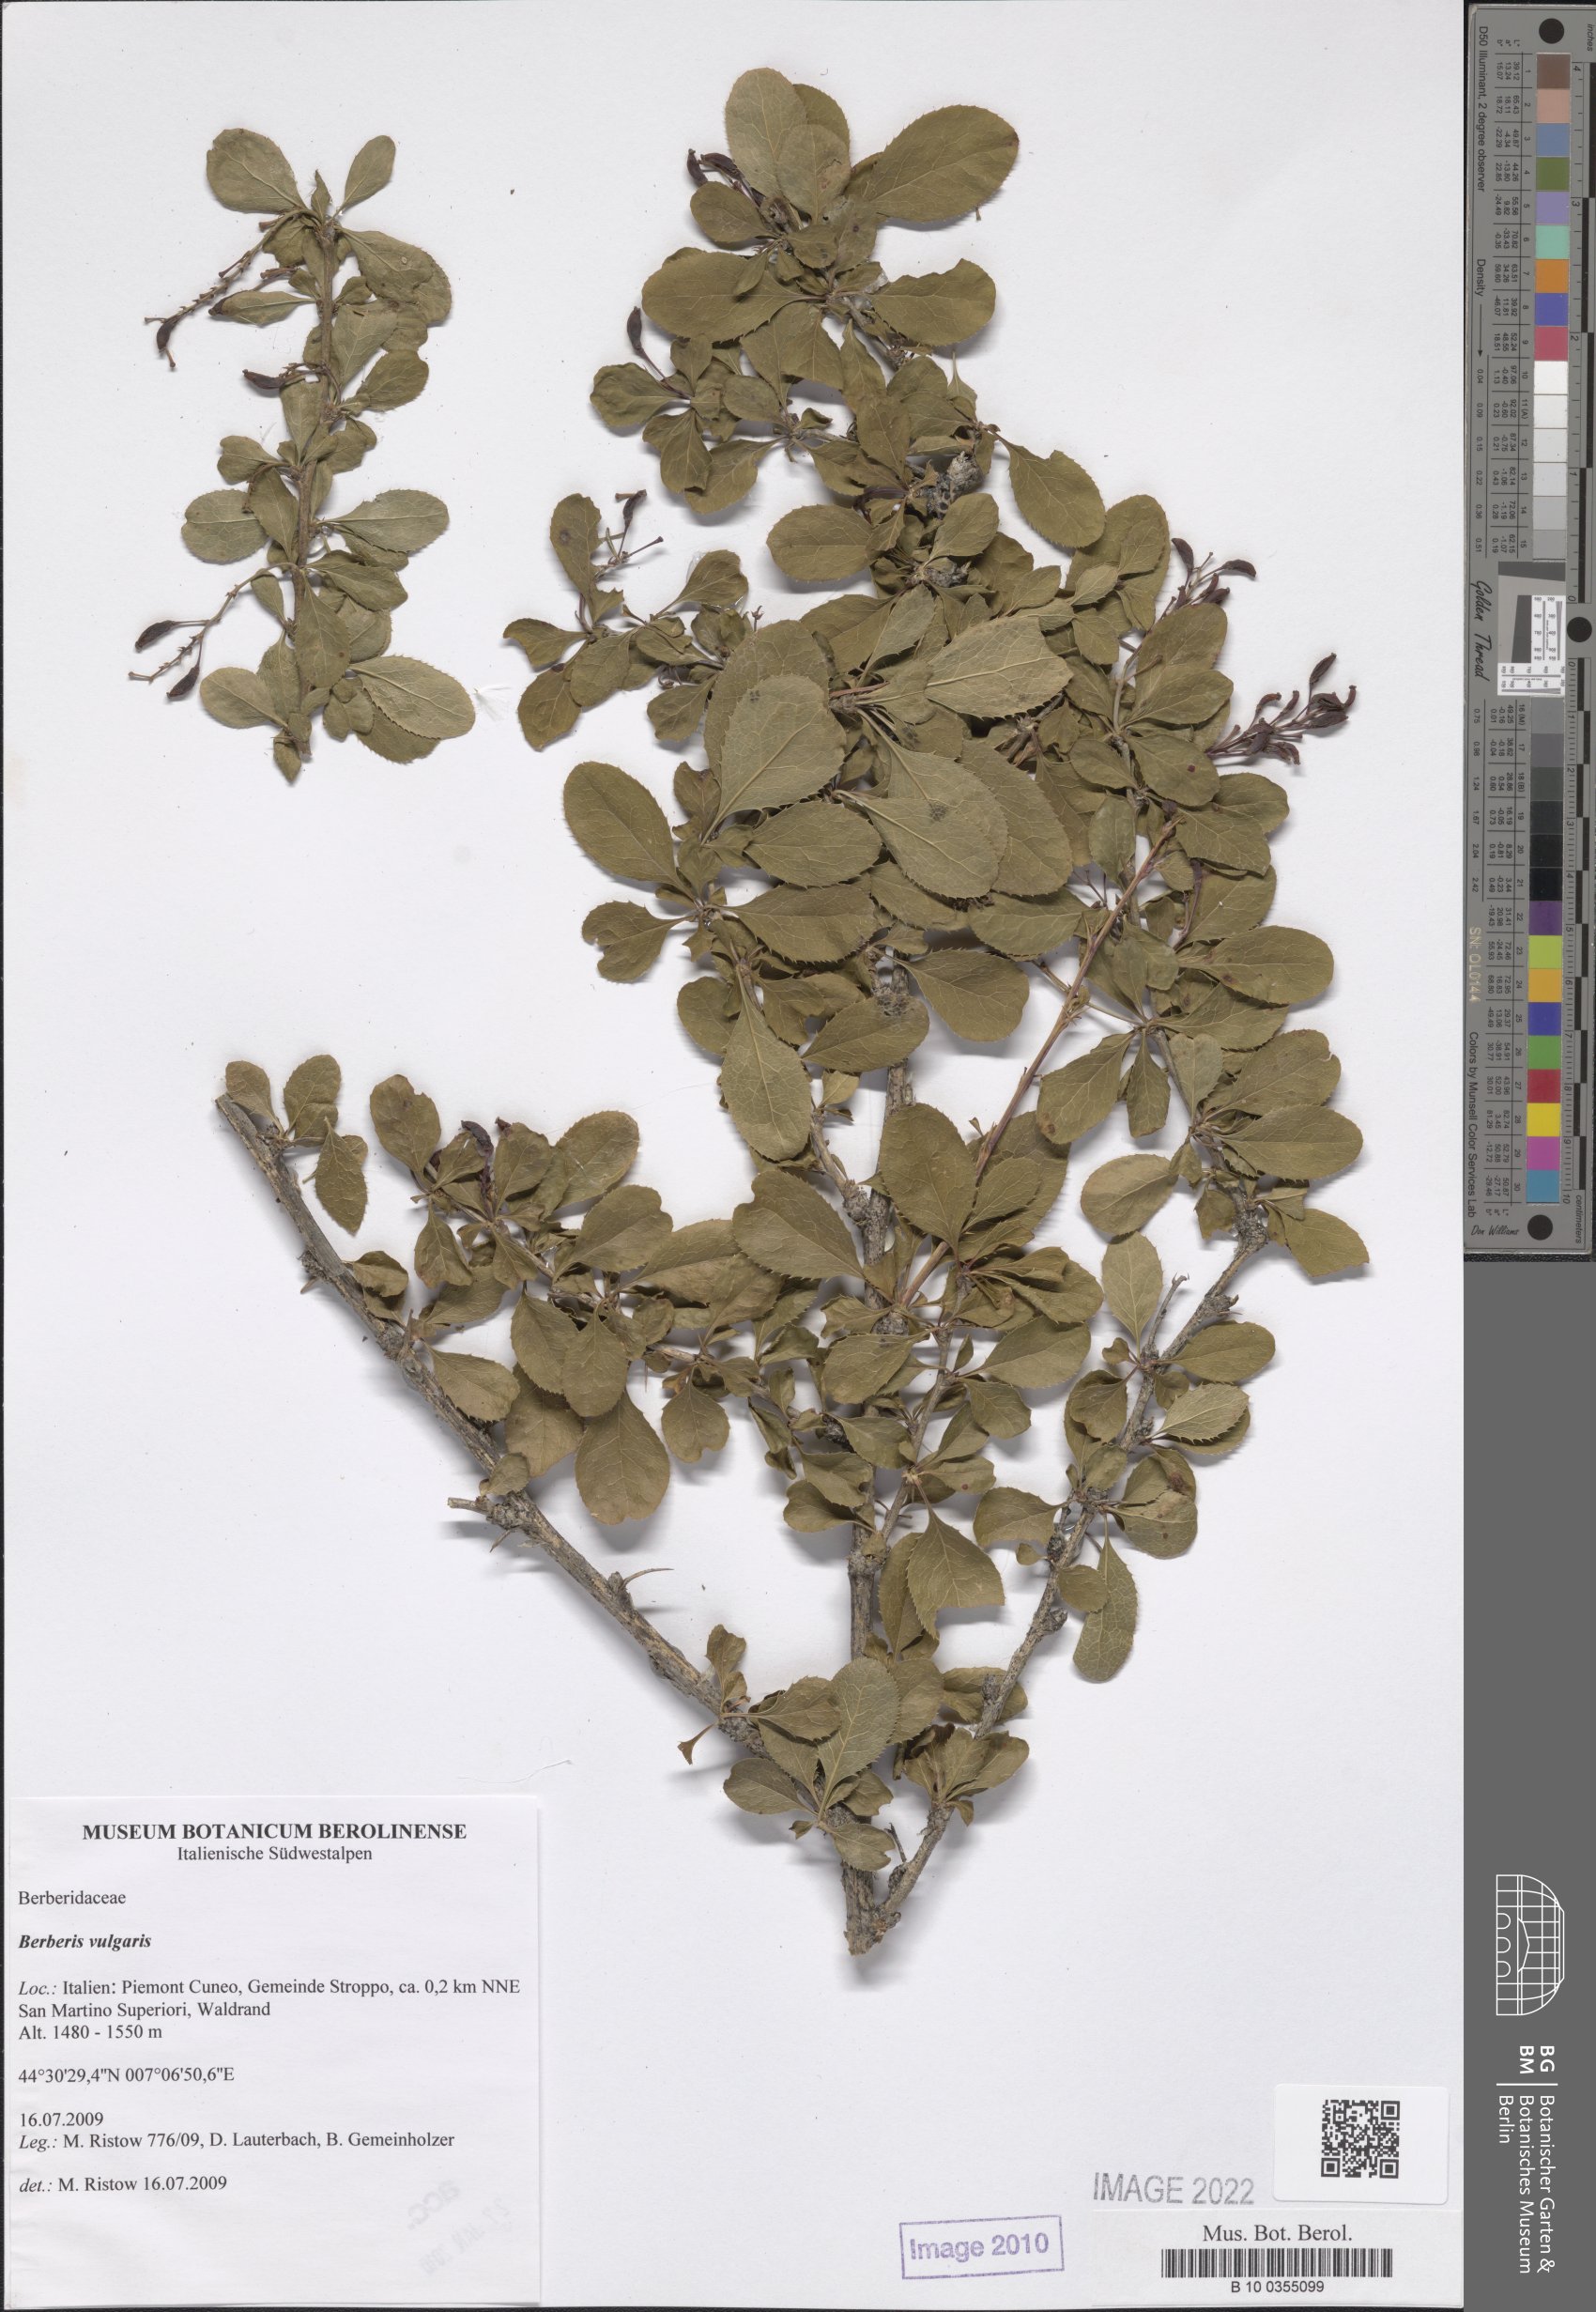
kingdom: Plantae
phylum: Tracheophyta
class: Magnoliopsida
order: Ranunculales
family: Berberidaceae
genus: Berberis
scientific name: Berberis vulgaris
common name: Barberry
